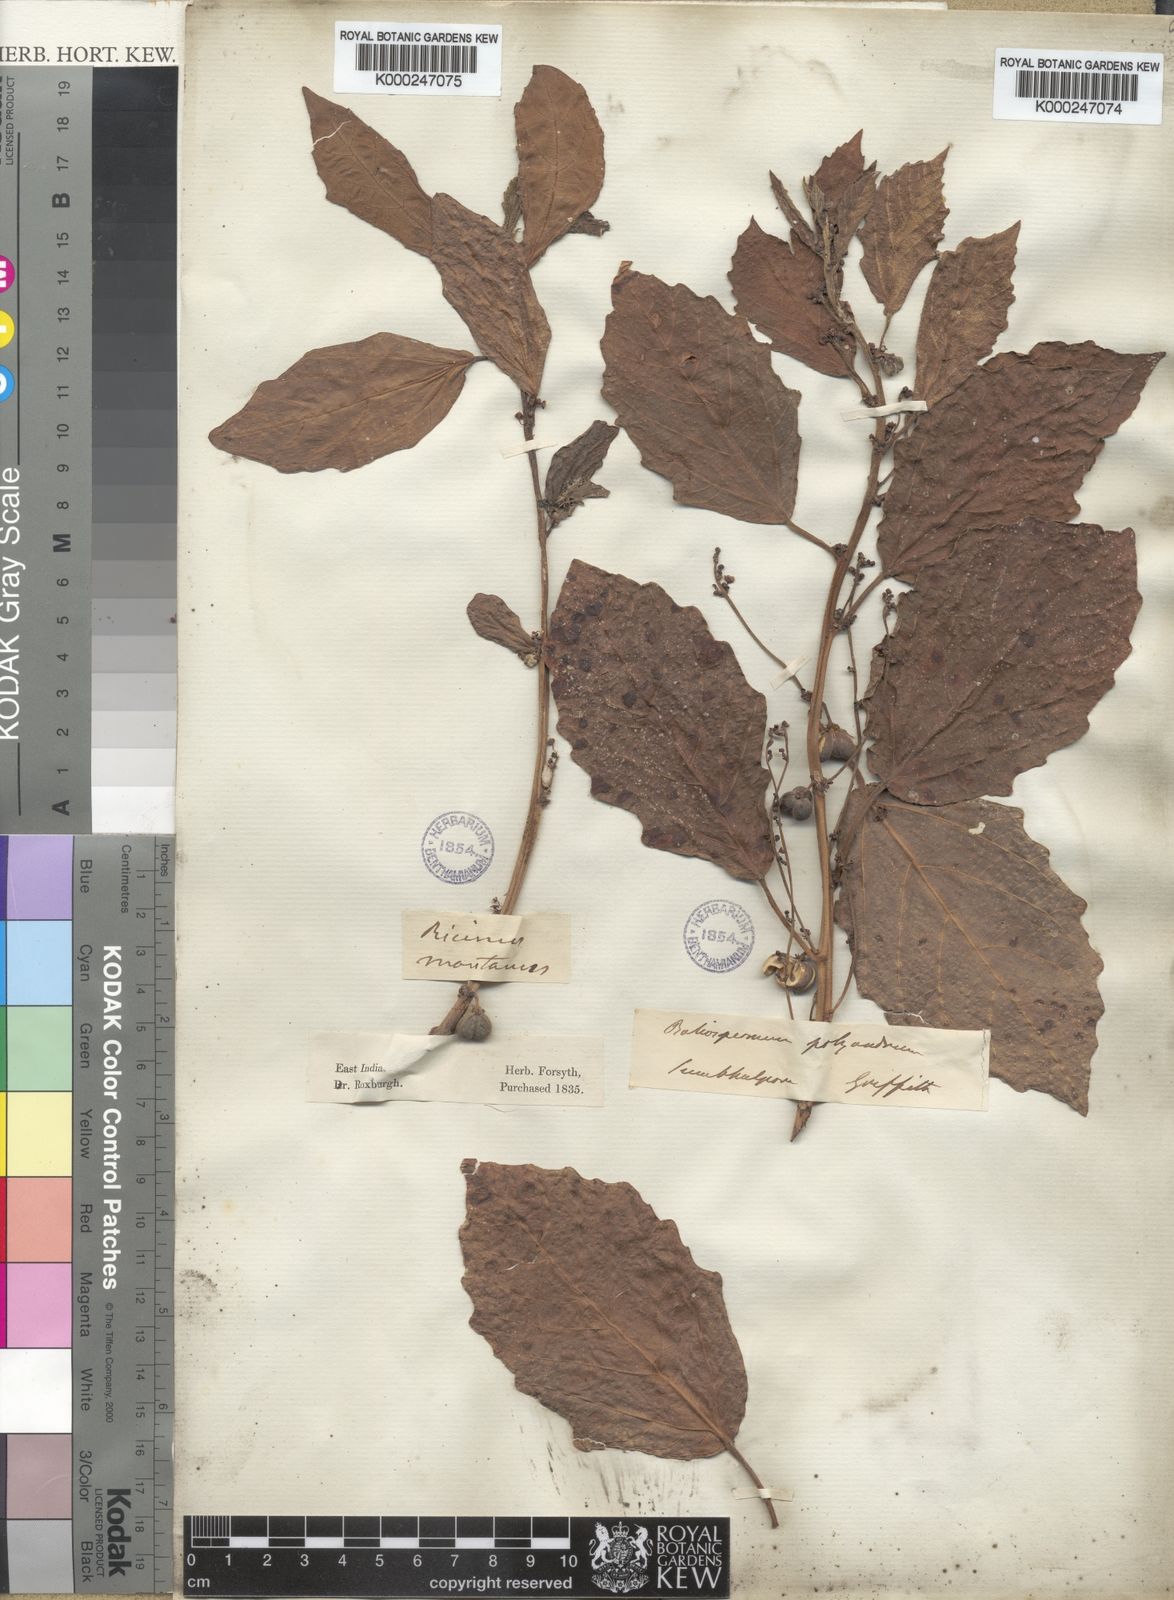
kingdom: Plantae
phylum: Tracheophyta
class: Magnoliopsida
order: Malpighiales
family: Euphorbiaceae
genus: Baliospermum
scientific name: Baliospermum
